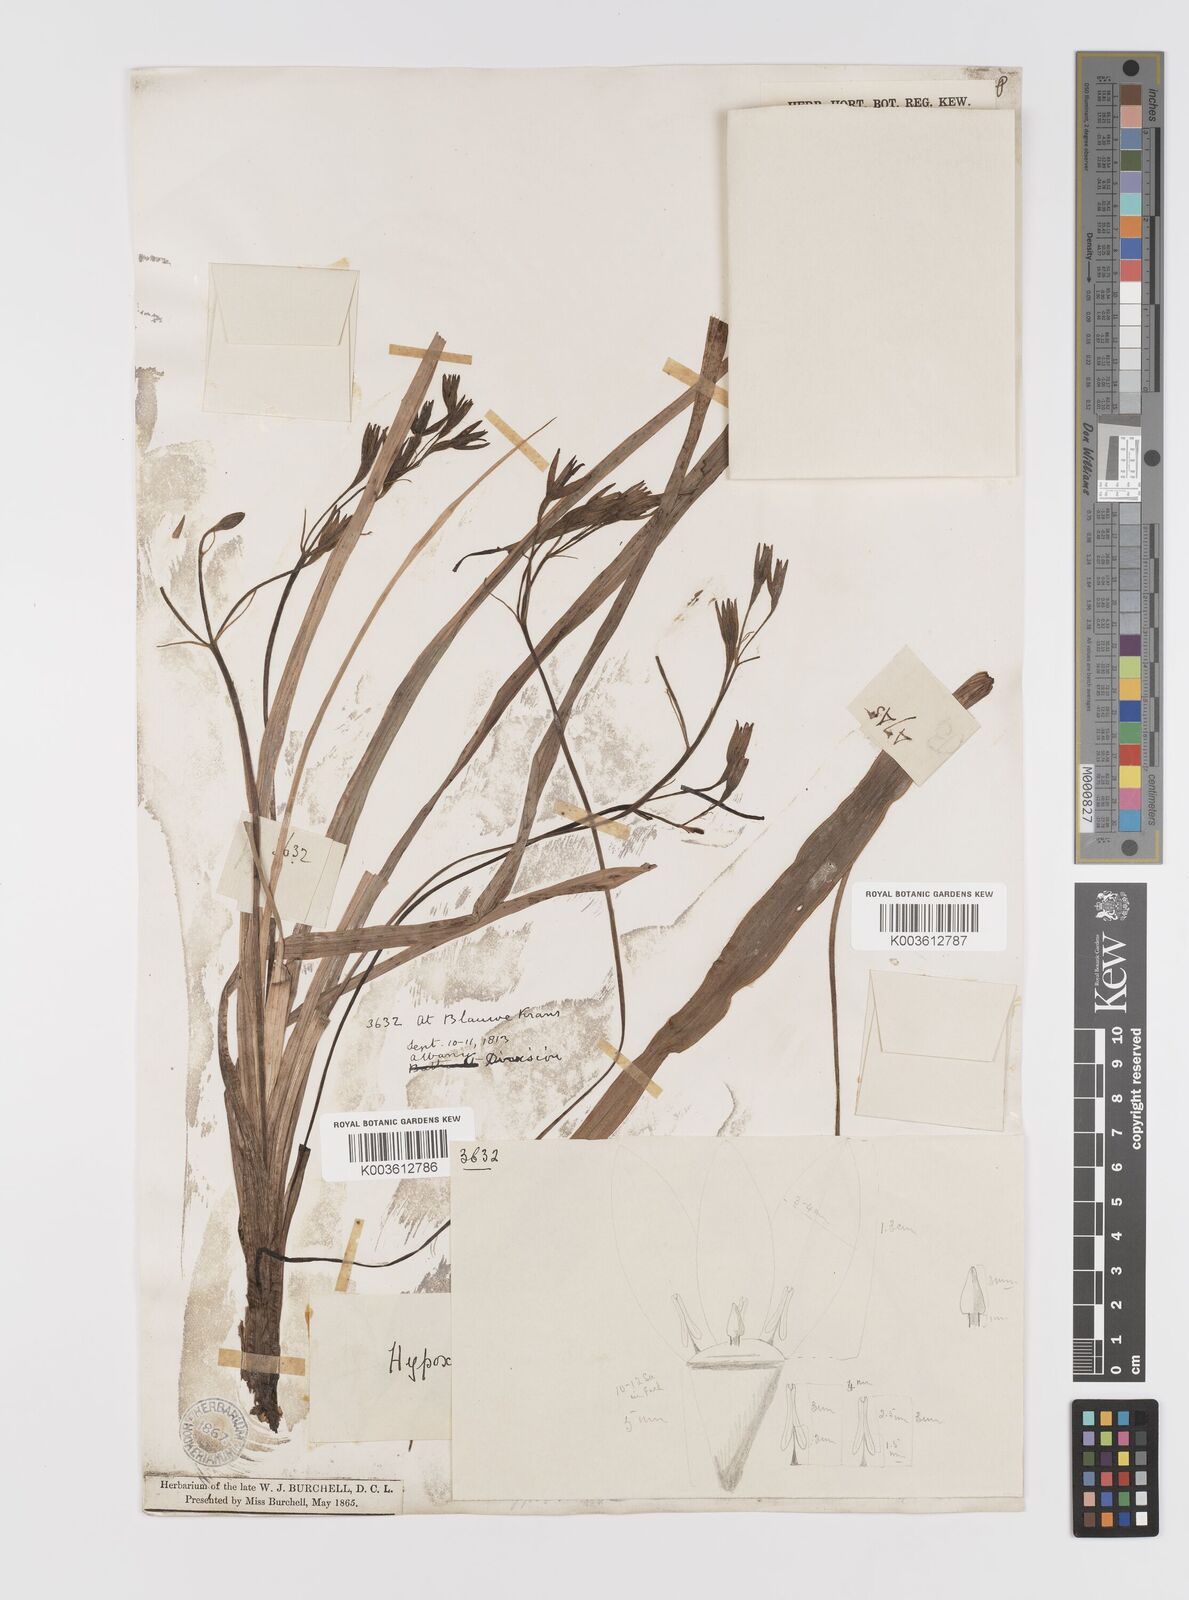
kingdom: Plantae
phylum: Tracheophyta
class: Liliopsida
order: Asparagales
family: Hypoxidaceae
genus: Hypoxis
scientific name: Hypoxis villosa
